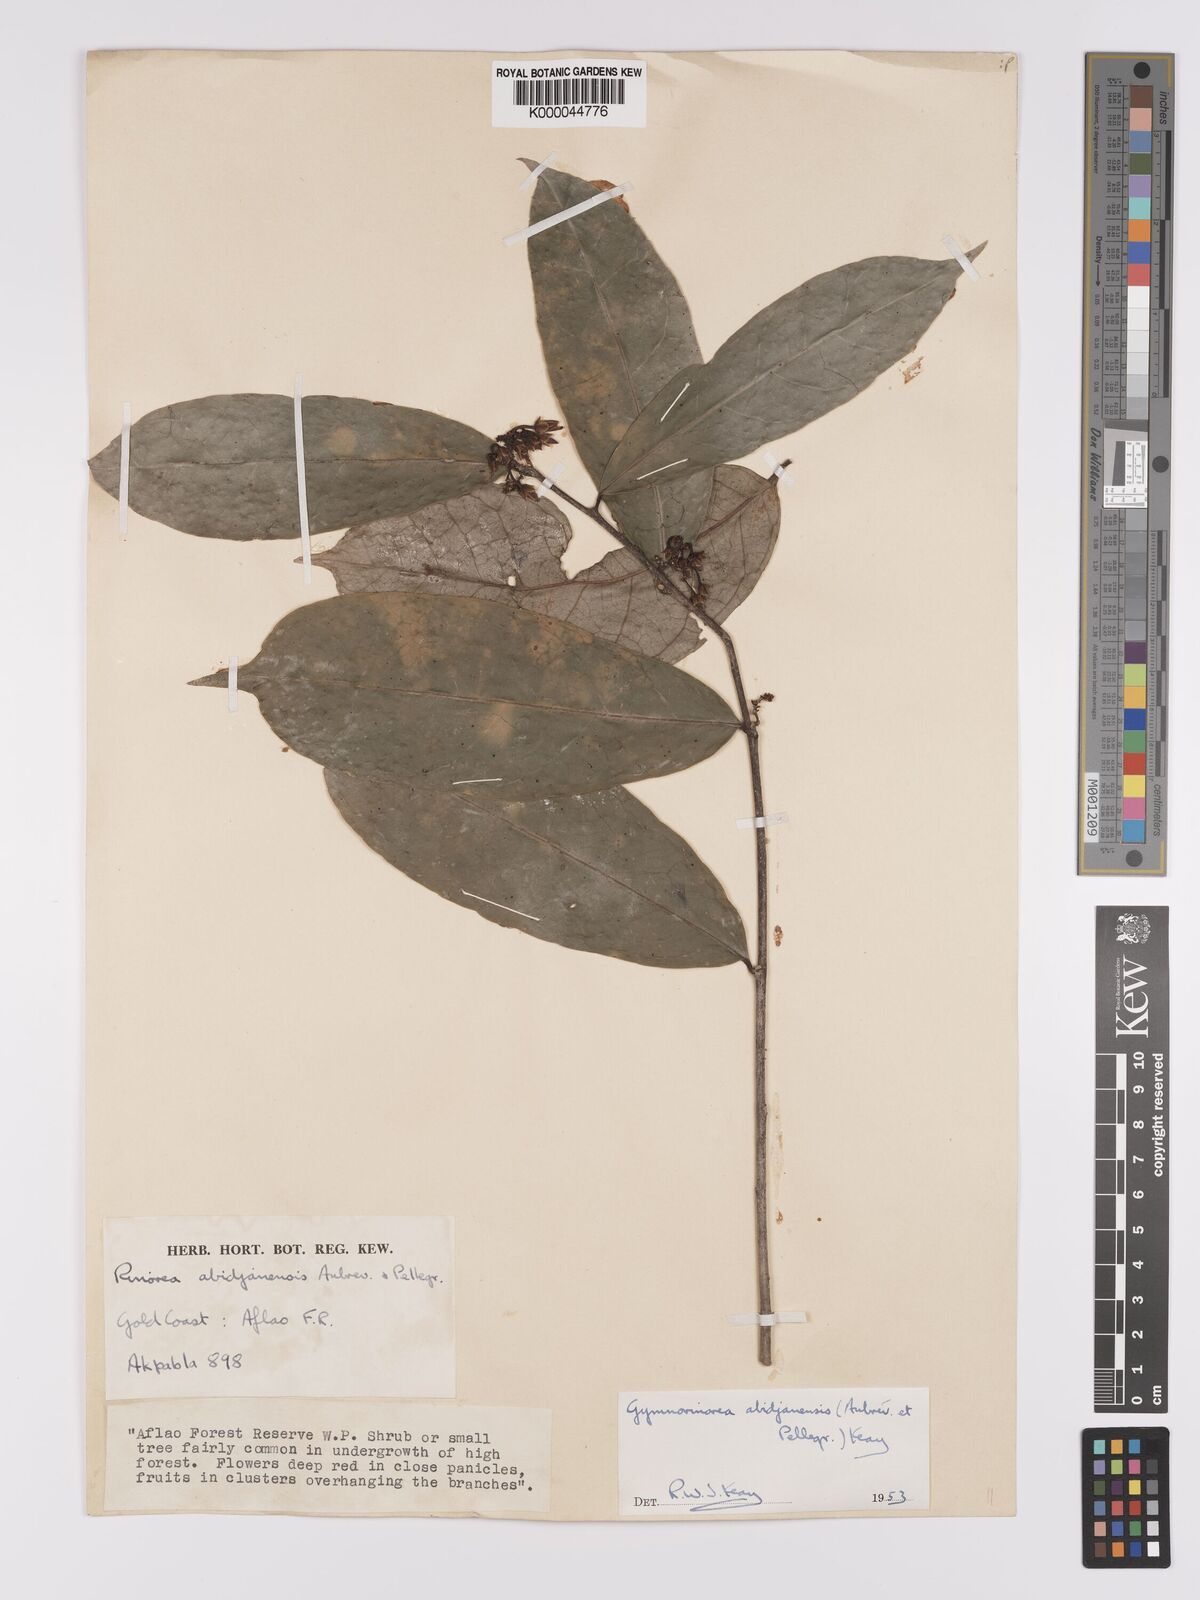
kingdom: Plantae
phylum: Tracheophyta
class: Magnoliopsida
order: Malpighiales
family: Violaceae
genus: Decorsella
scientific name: Decorsella paradoxa
